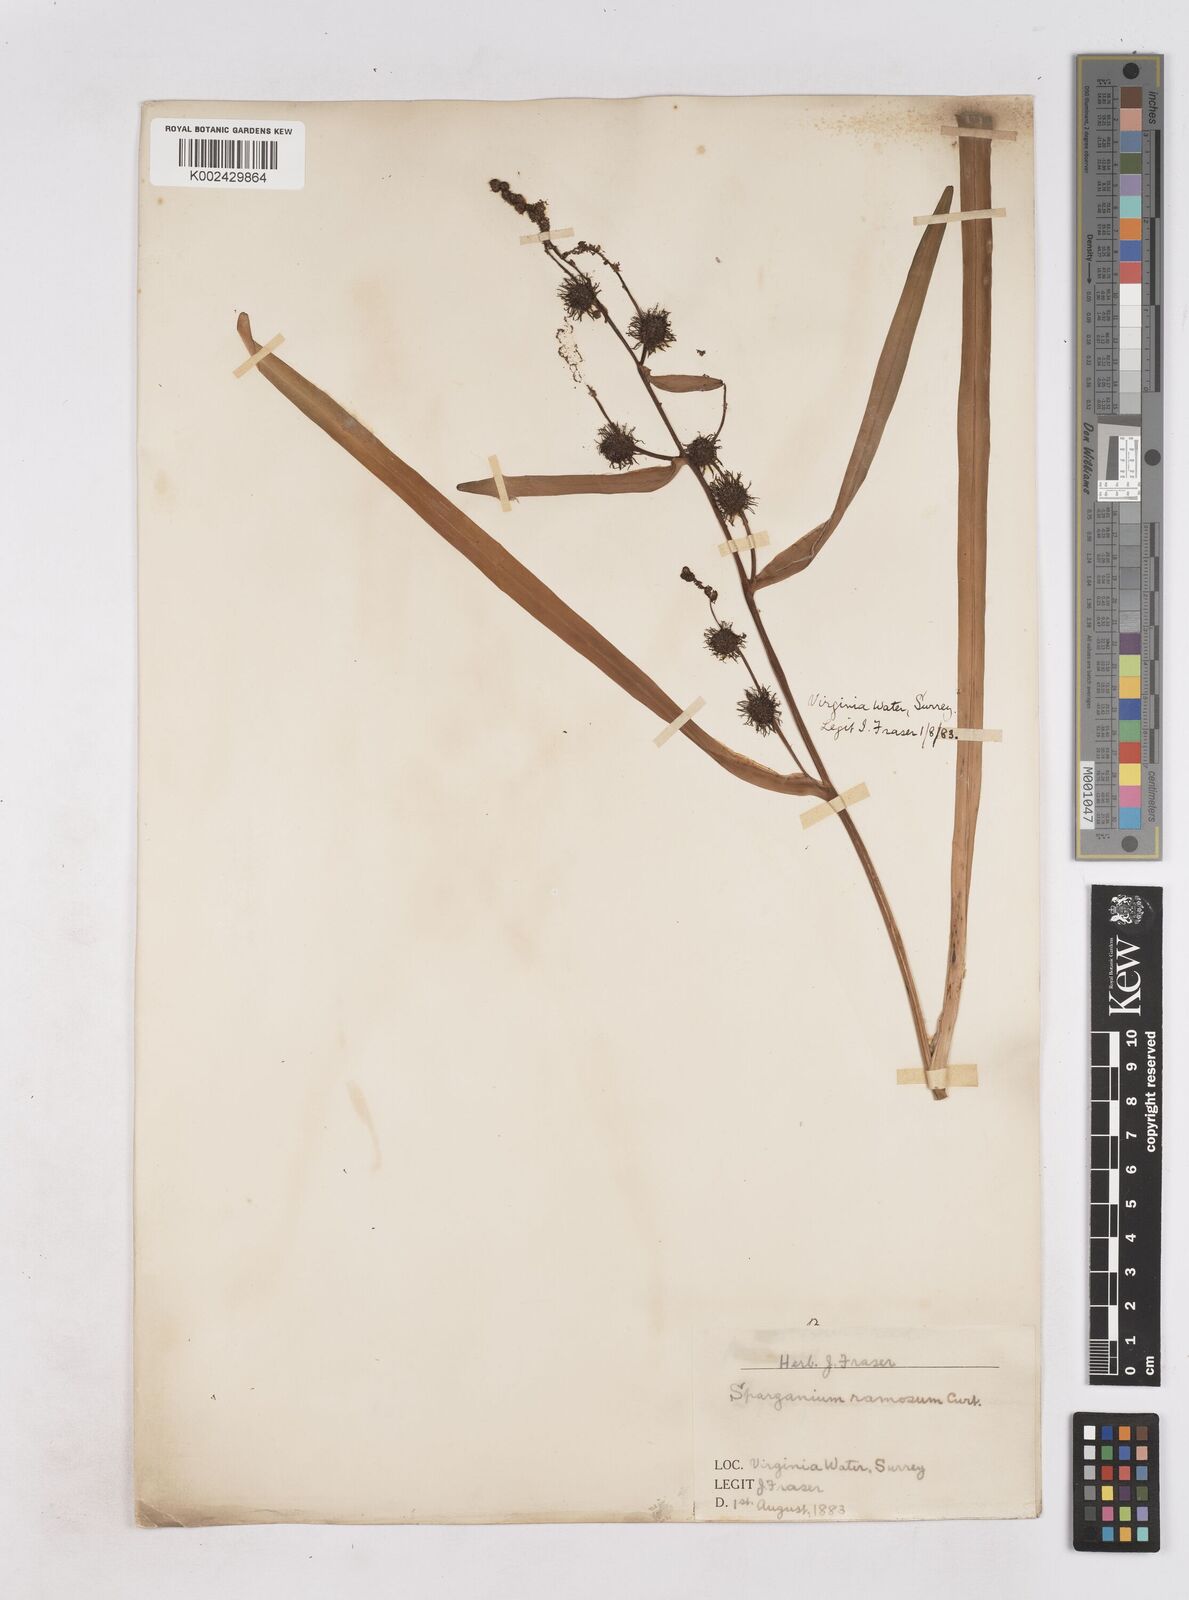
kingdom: Plantae
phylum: Tracheophyta
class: Liliopsida
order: Poales
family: Typhaceae
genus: Sparganium
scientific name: Sparganium erectum
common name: Branched bur-reed
